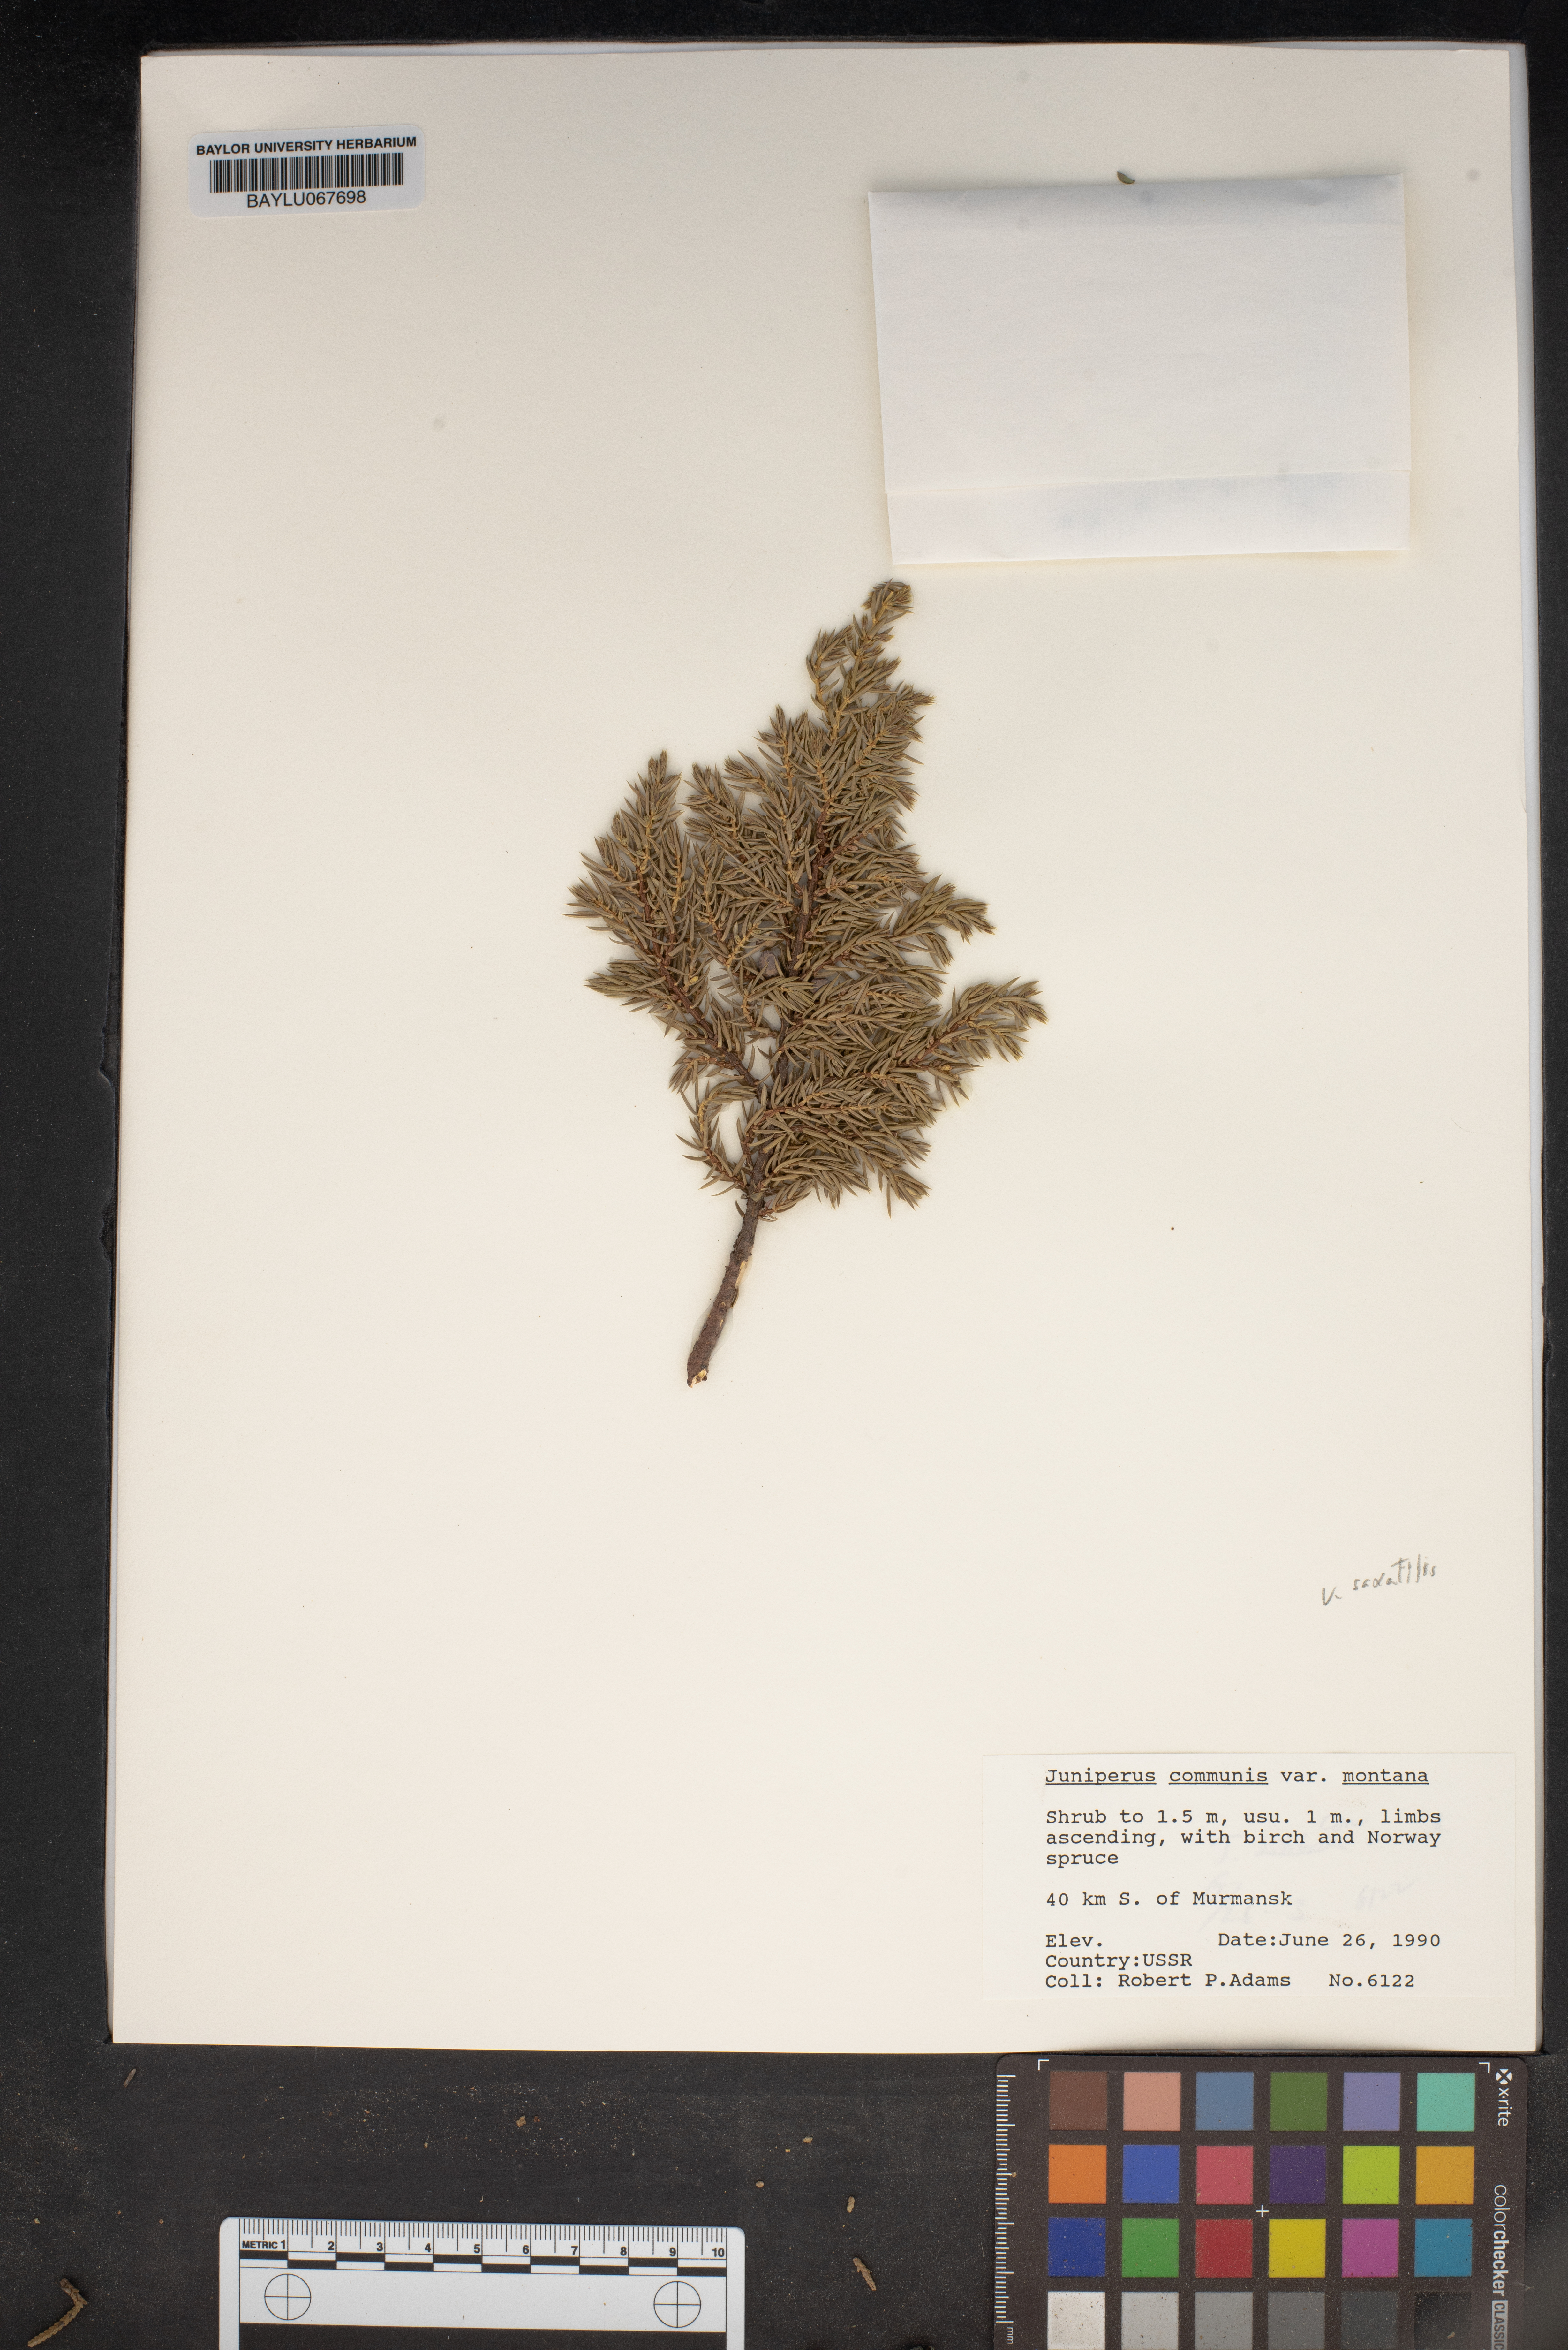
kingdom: Plantae
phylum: Tracheophyta
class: Pinopsida
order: Pinales
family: Cupressaceae
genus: Juniperus
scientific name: Juniperus communis
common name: Common juniper
